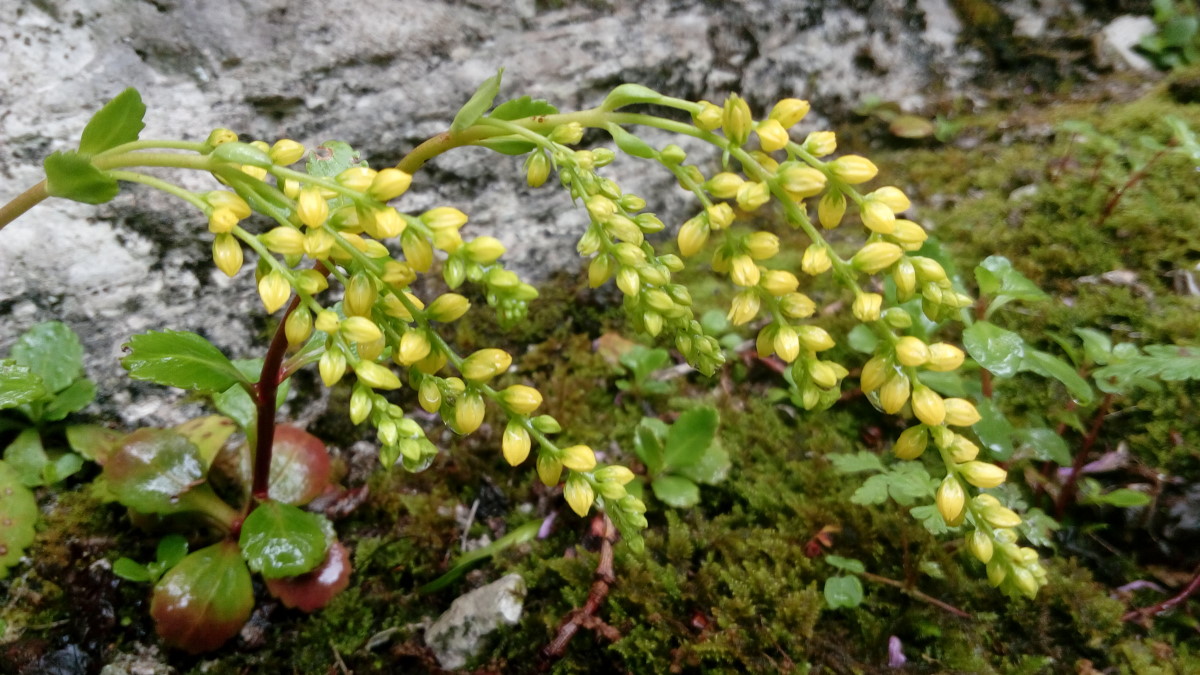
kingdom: Plantae
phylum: Tracheophyta
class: Magnoliopsida
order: Saxifragales
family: Crassulaceae
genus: Umbilicus
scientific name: Umbilicus oppositifolius
